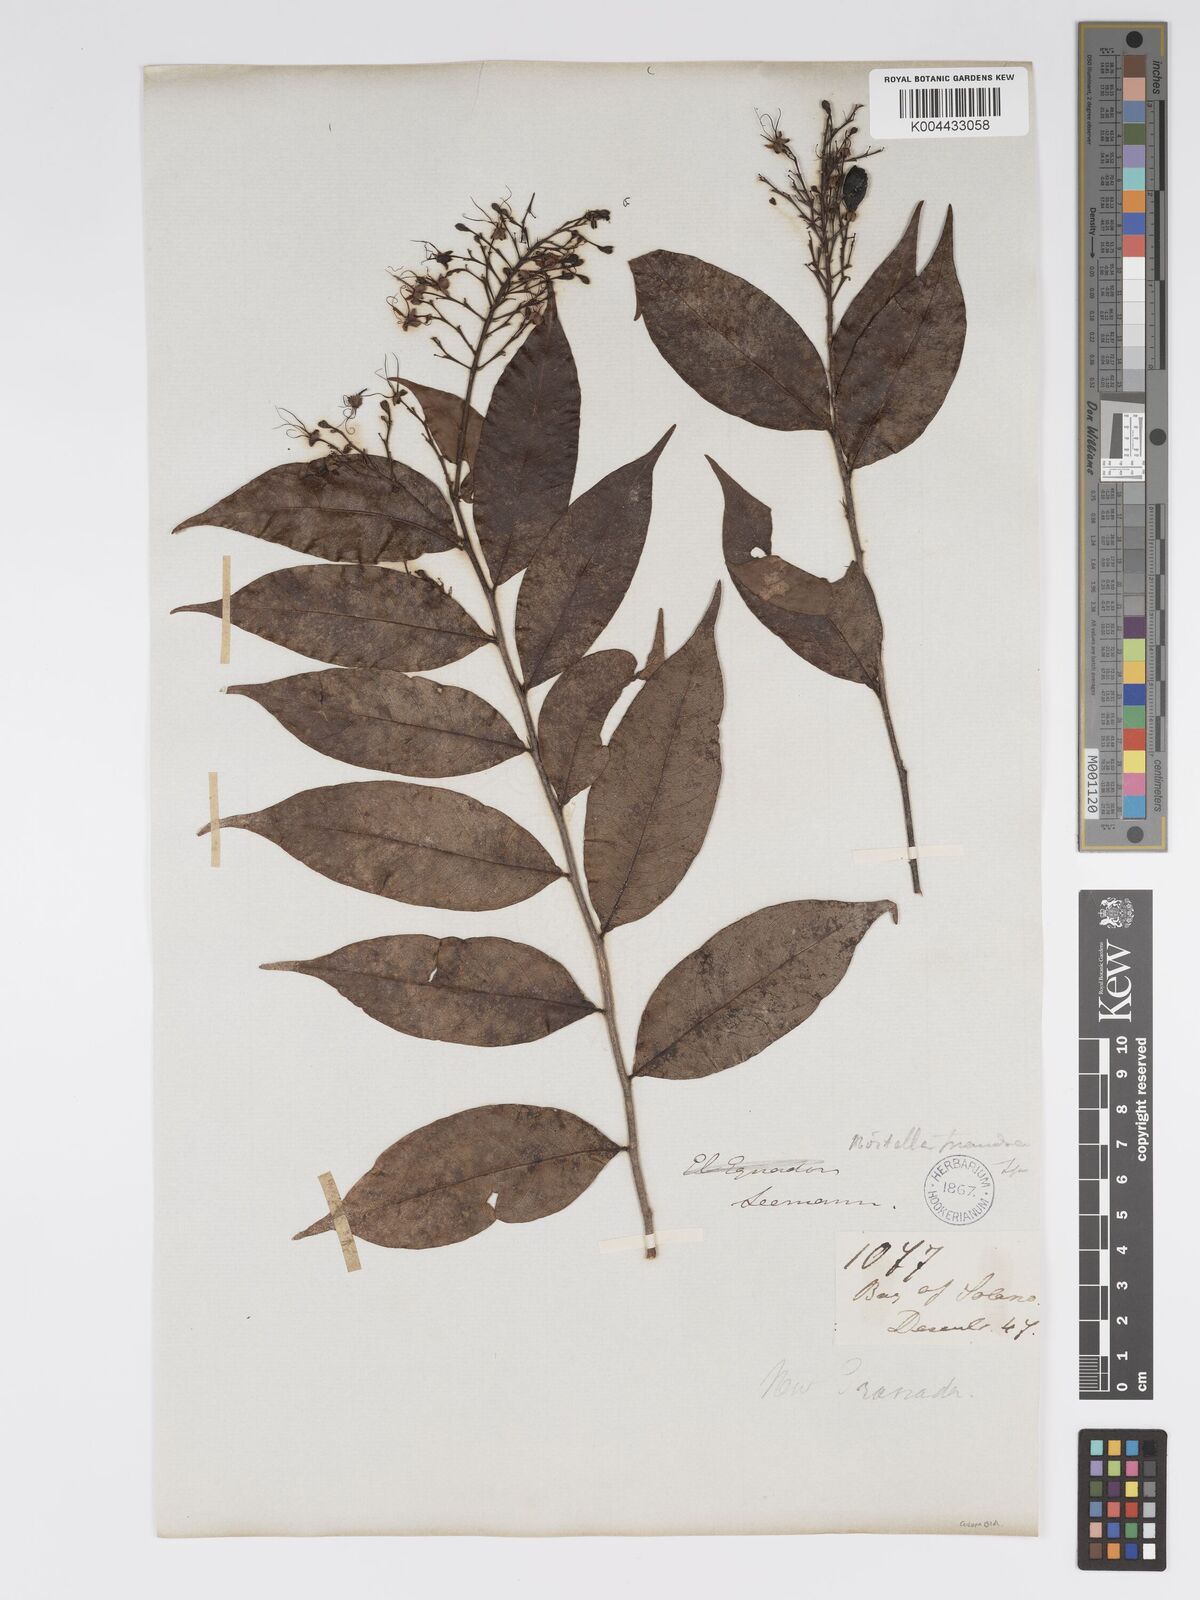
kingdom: Plantae
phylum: Tracheophyta
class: Magnoliopsida
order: Malpighiales
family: Chrysobalanaceae
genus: Hirtella
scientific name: Hirtella triandra
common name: Hairy plum
